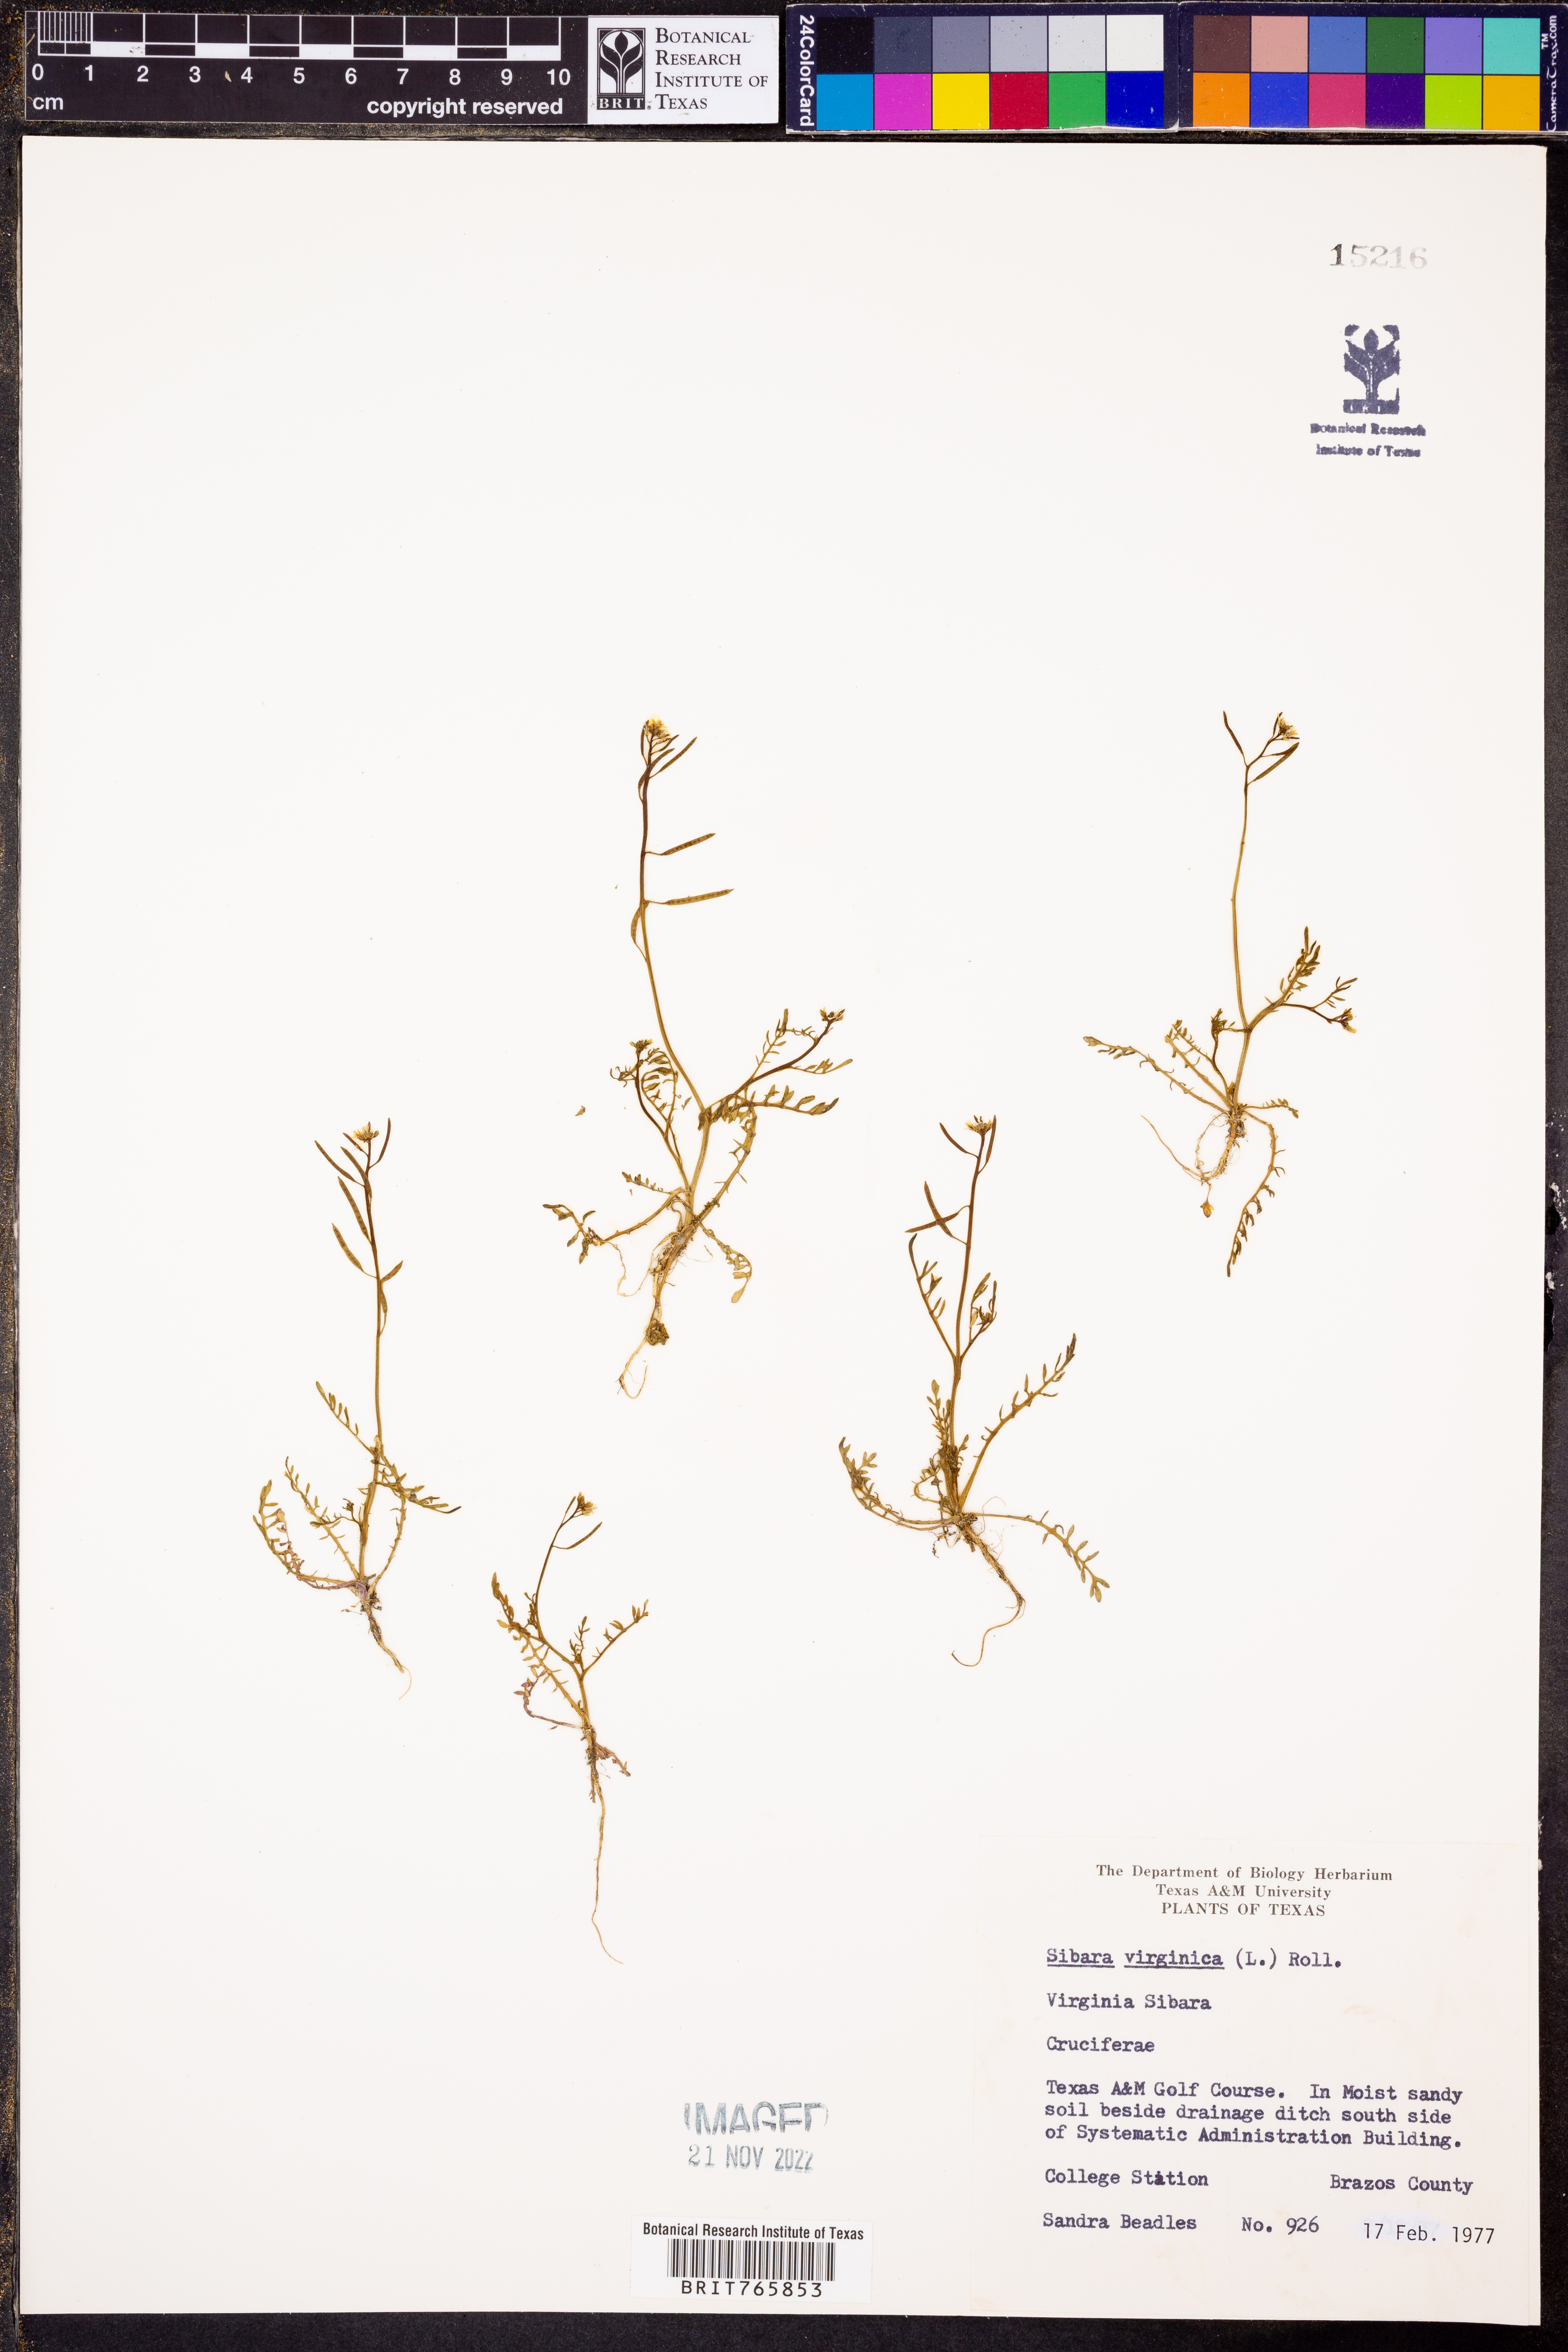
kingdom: Plantae
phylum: Tracheophyta
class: Magnoliopsida
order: Brassicales
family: Brassicaceae
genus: Planodes
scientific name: Planodes virginicum
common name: Virginia cress
